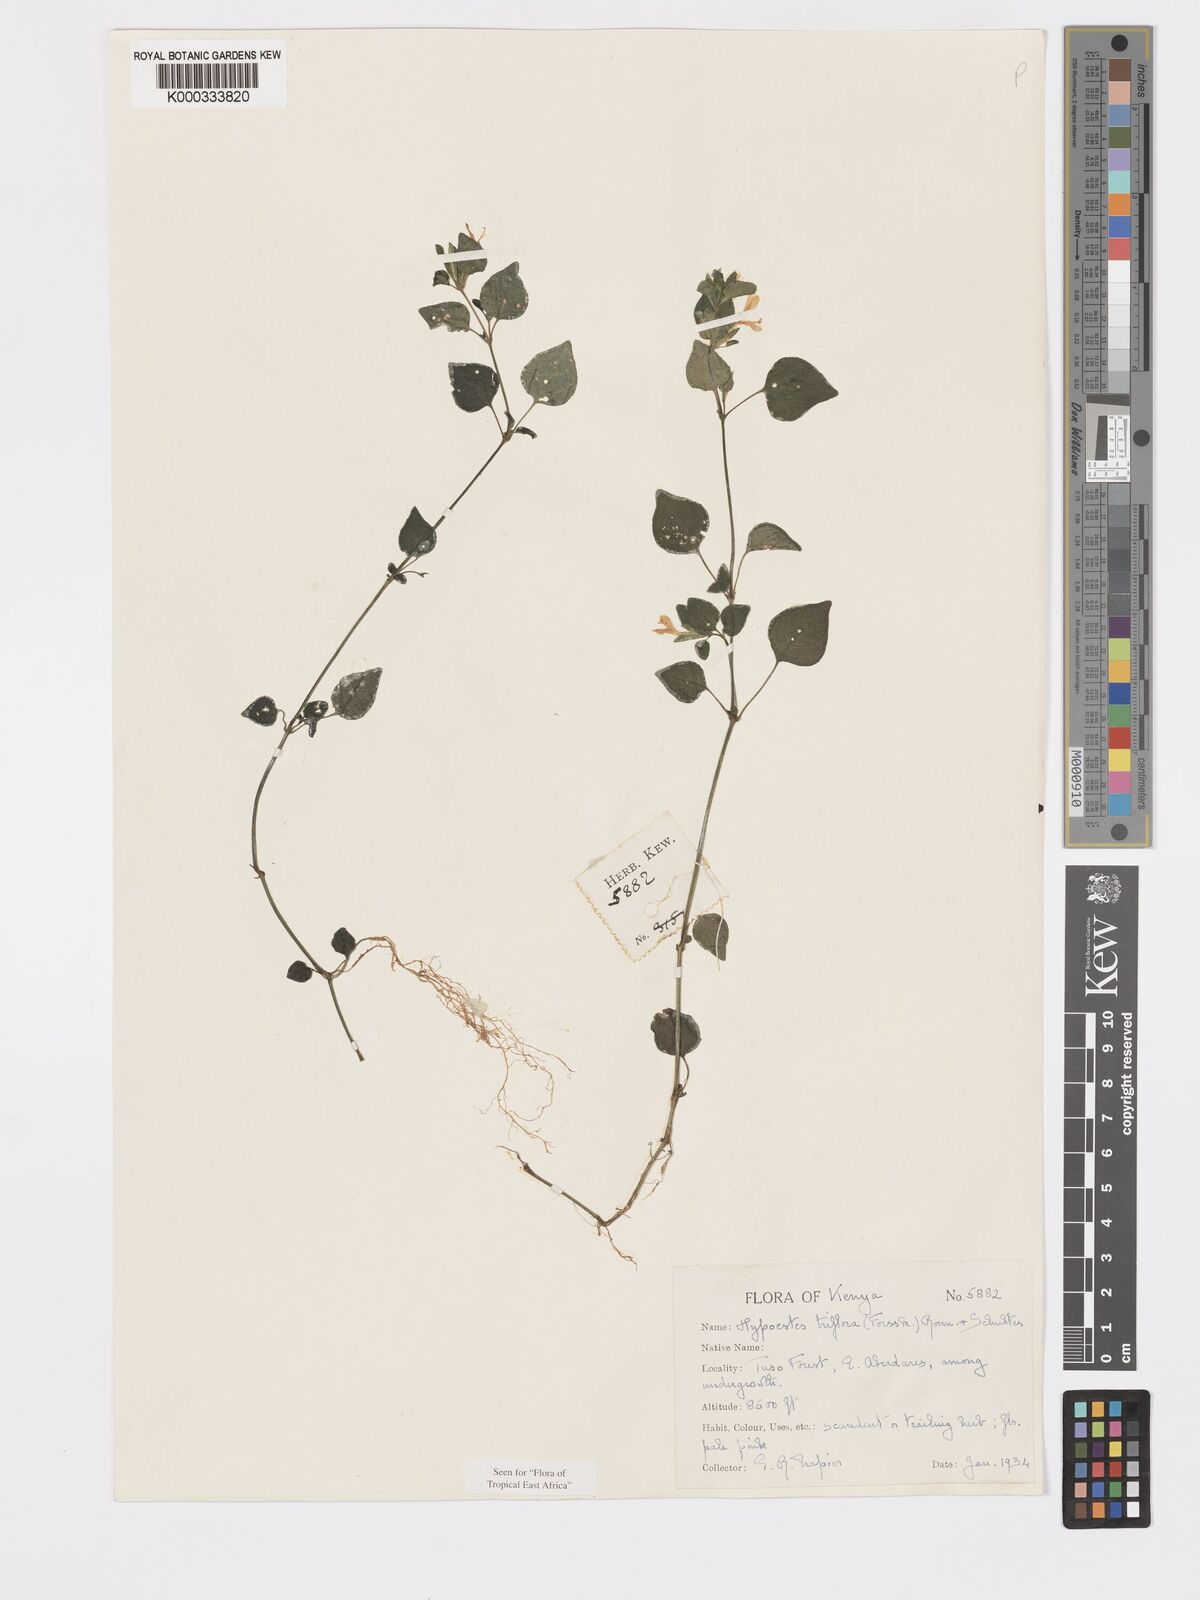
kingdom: Plantae
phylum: Tracheophyta
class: Magnoliopsida
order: Lamiales
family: Acanthaceae
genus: Hypoestes
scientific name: Hypoestes triflora
